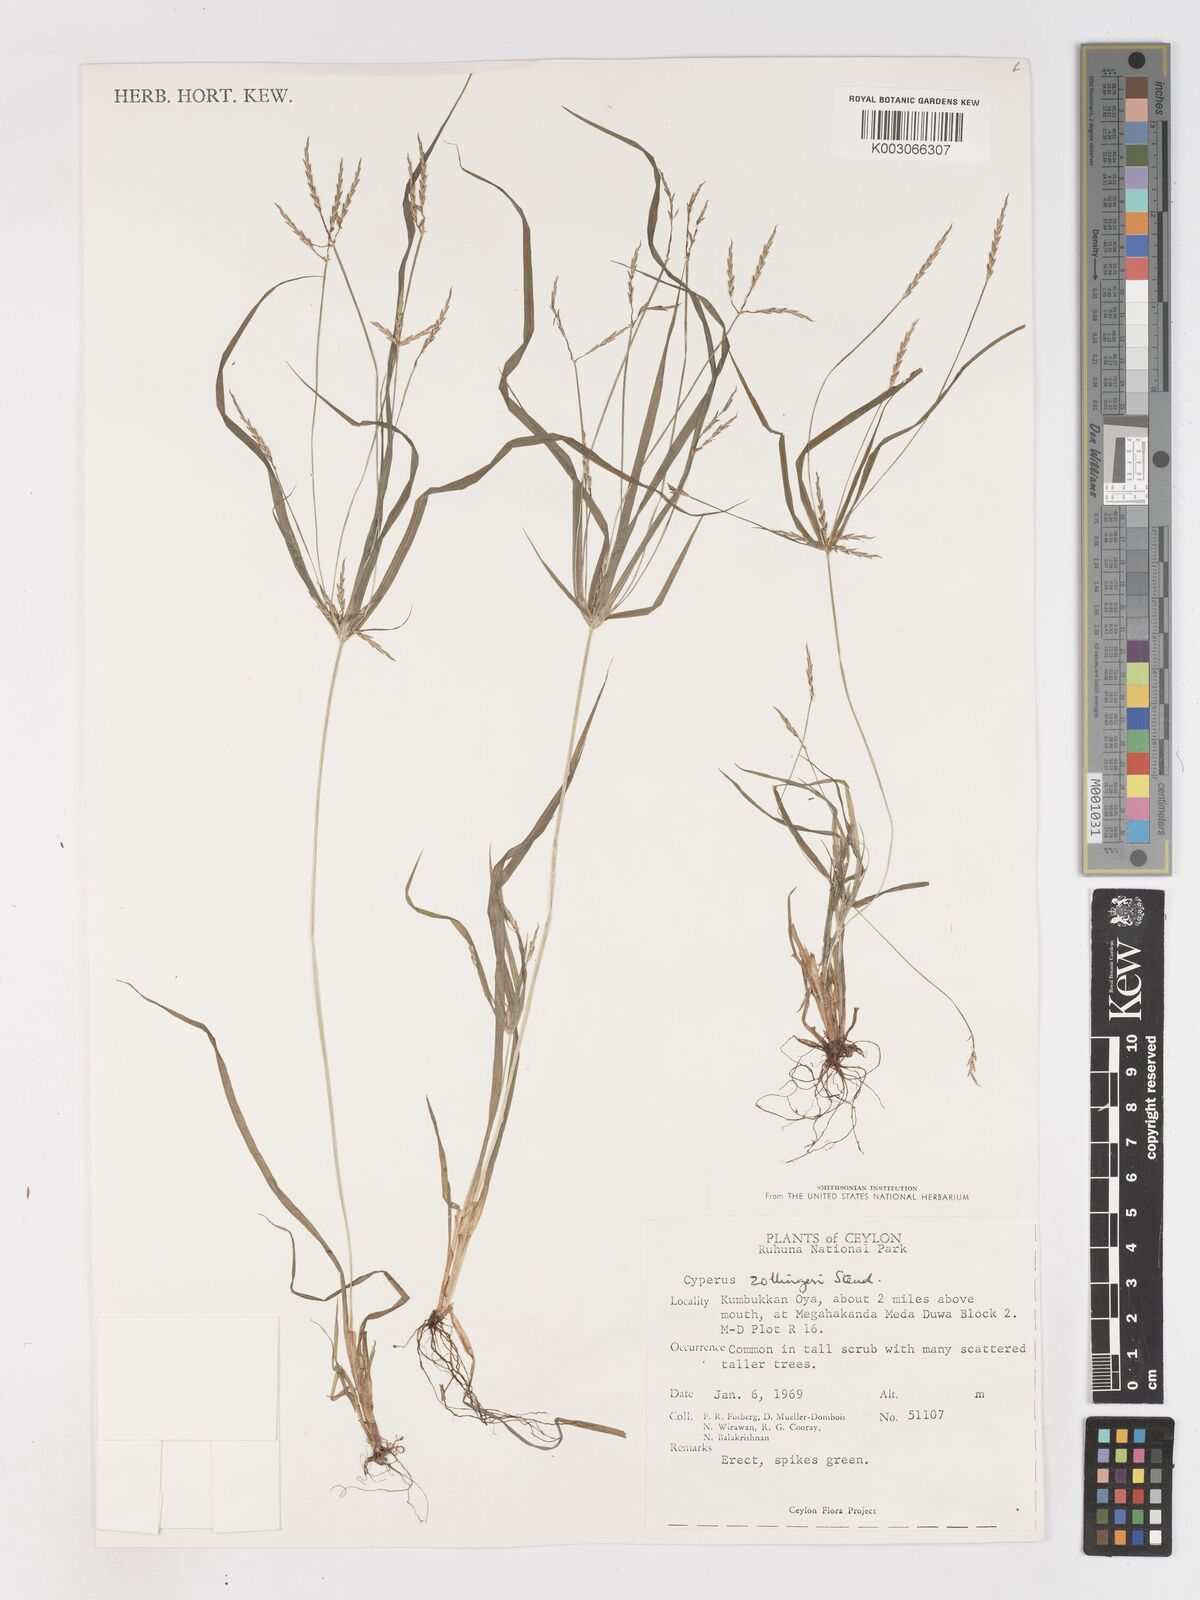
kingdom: Plantae
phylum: Tracheophyta
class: Liliopsida
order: Poales
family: Cyperaceae
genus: Cyperus
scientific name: Cyperus zollingeri
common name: Roadside flatsedge
